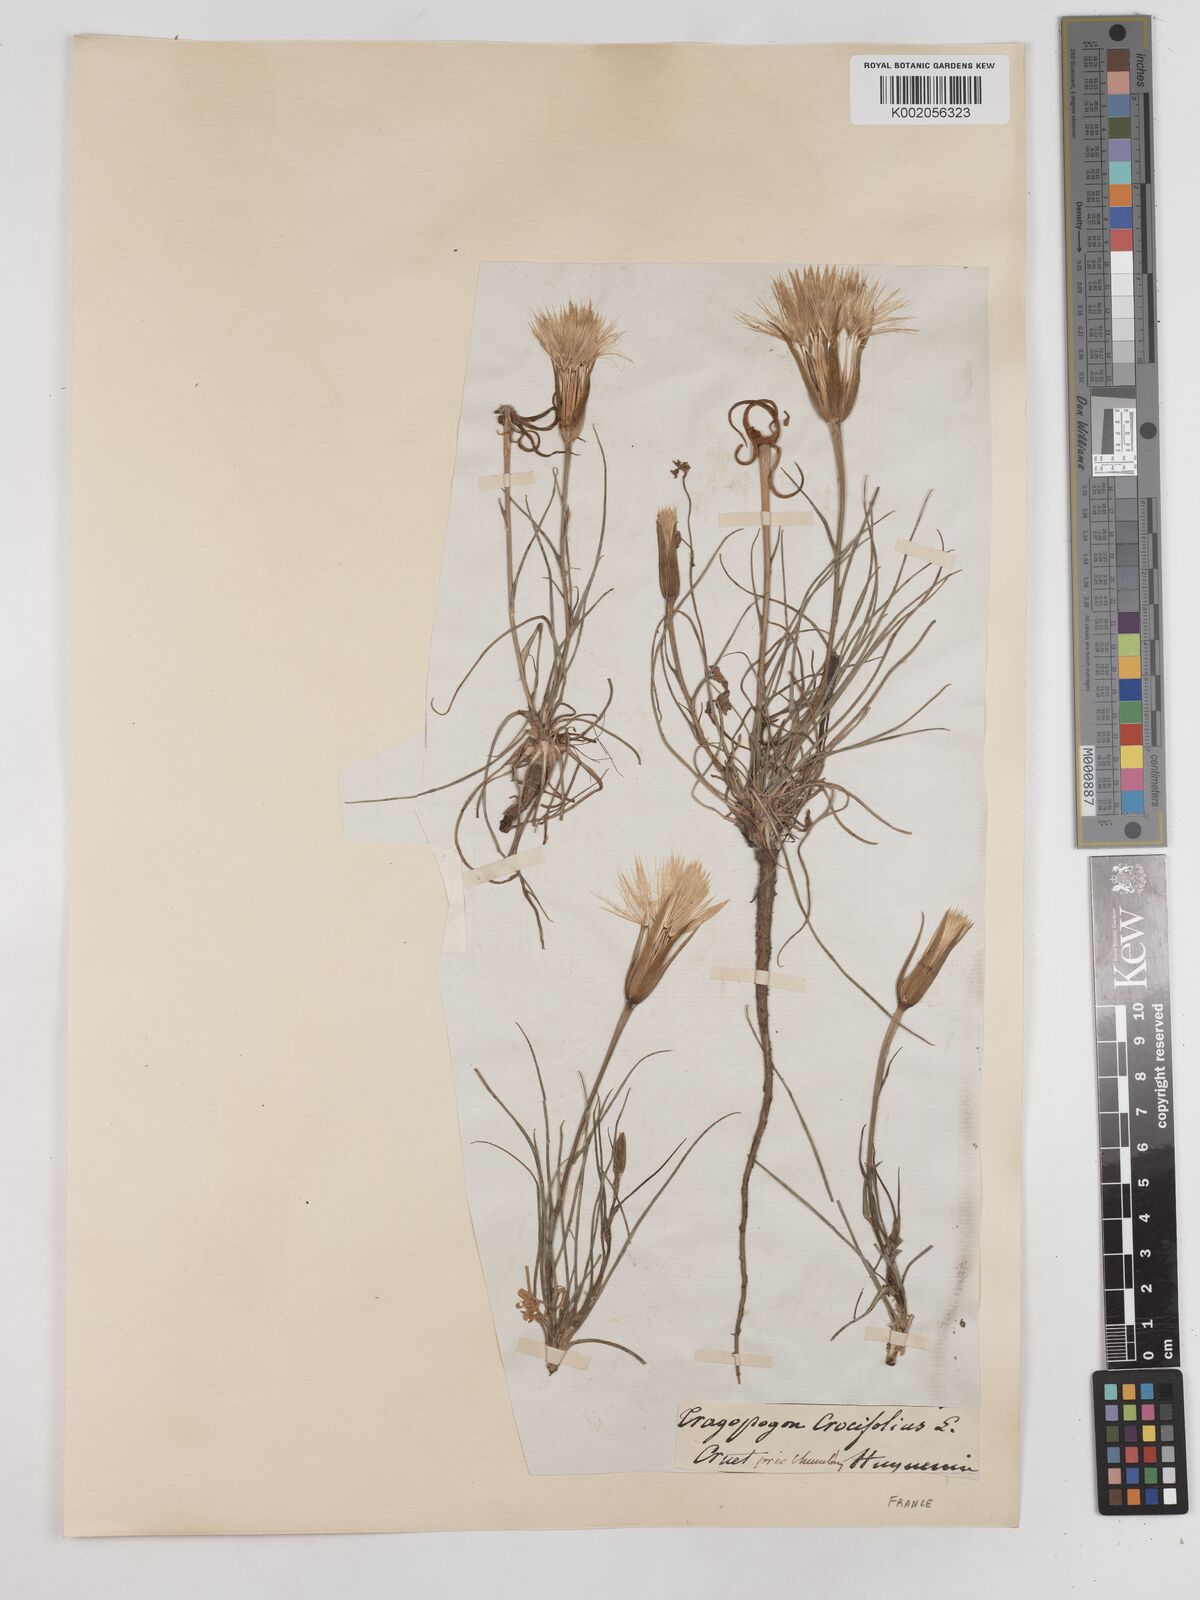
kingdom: Plantae
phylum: Tracheophyta
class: Magnoliopsida
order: Asterales
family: Asteraceae
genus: Tragopogon
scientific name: Tragopogon crocifolius
